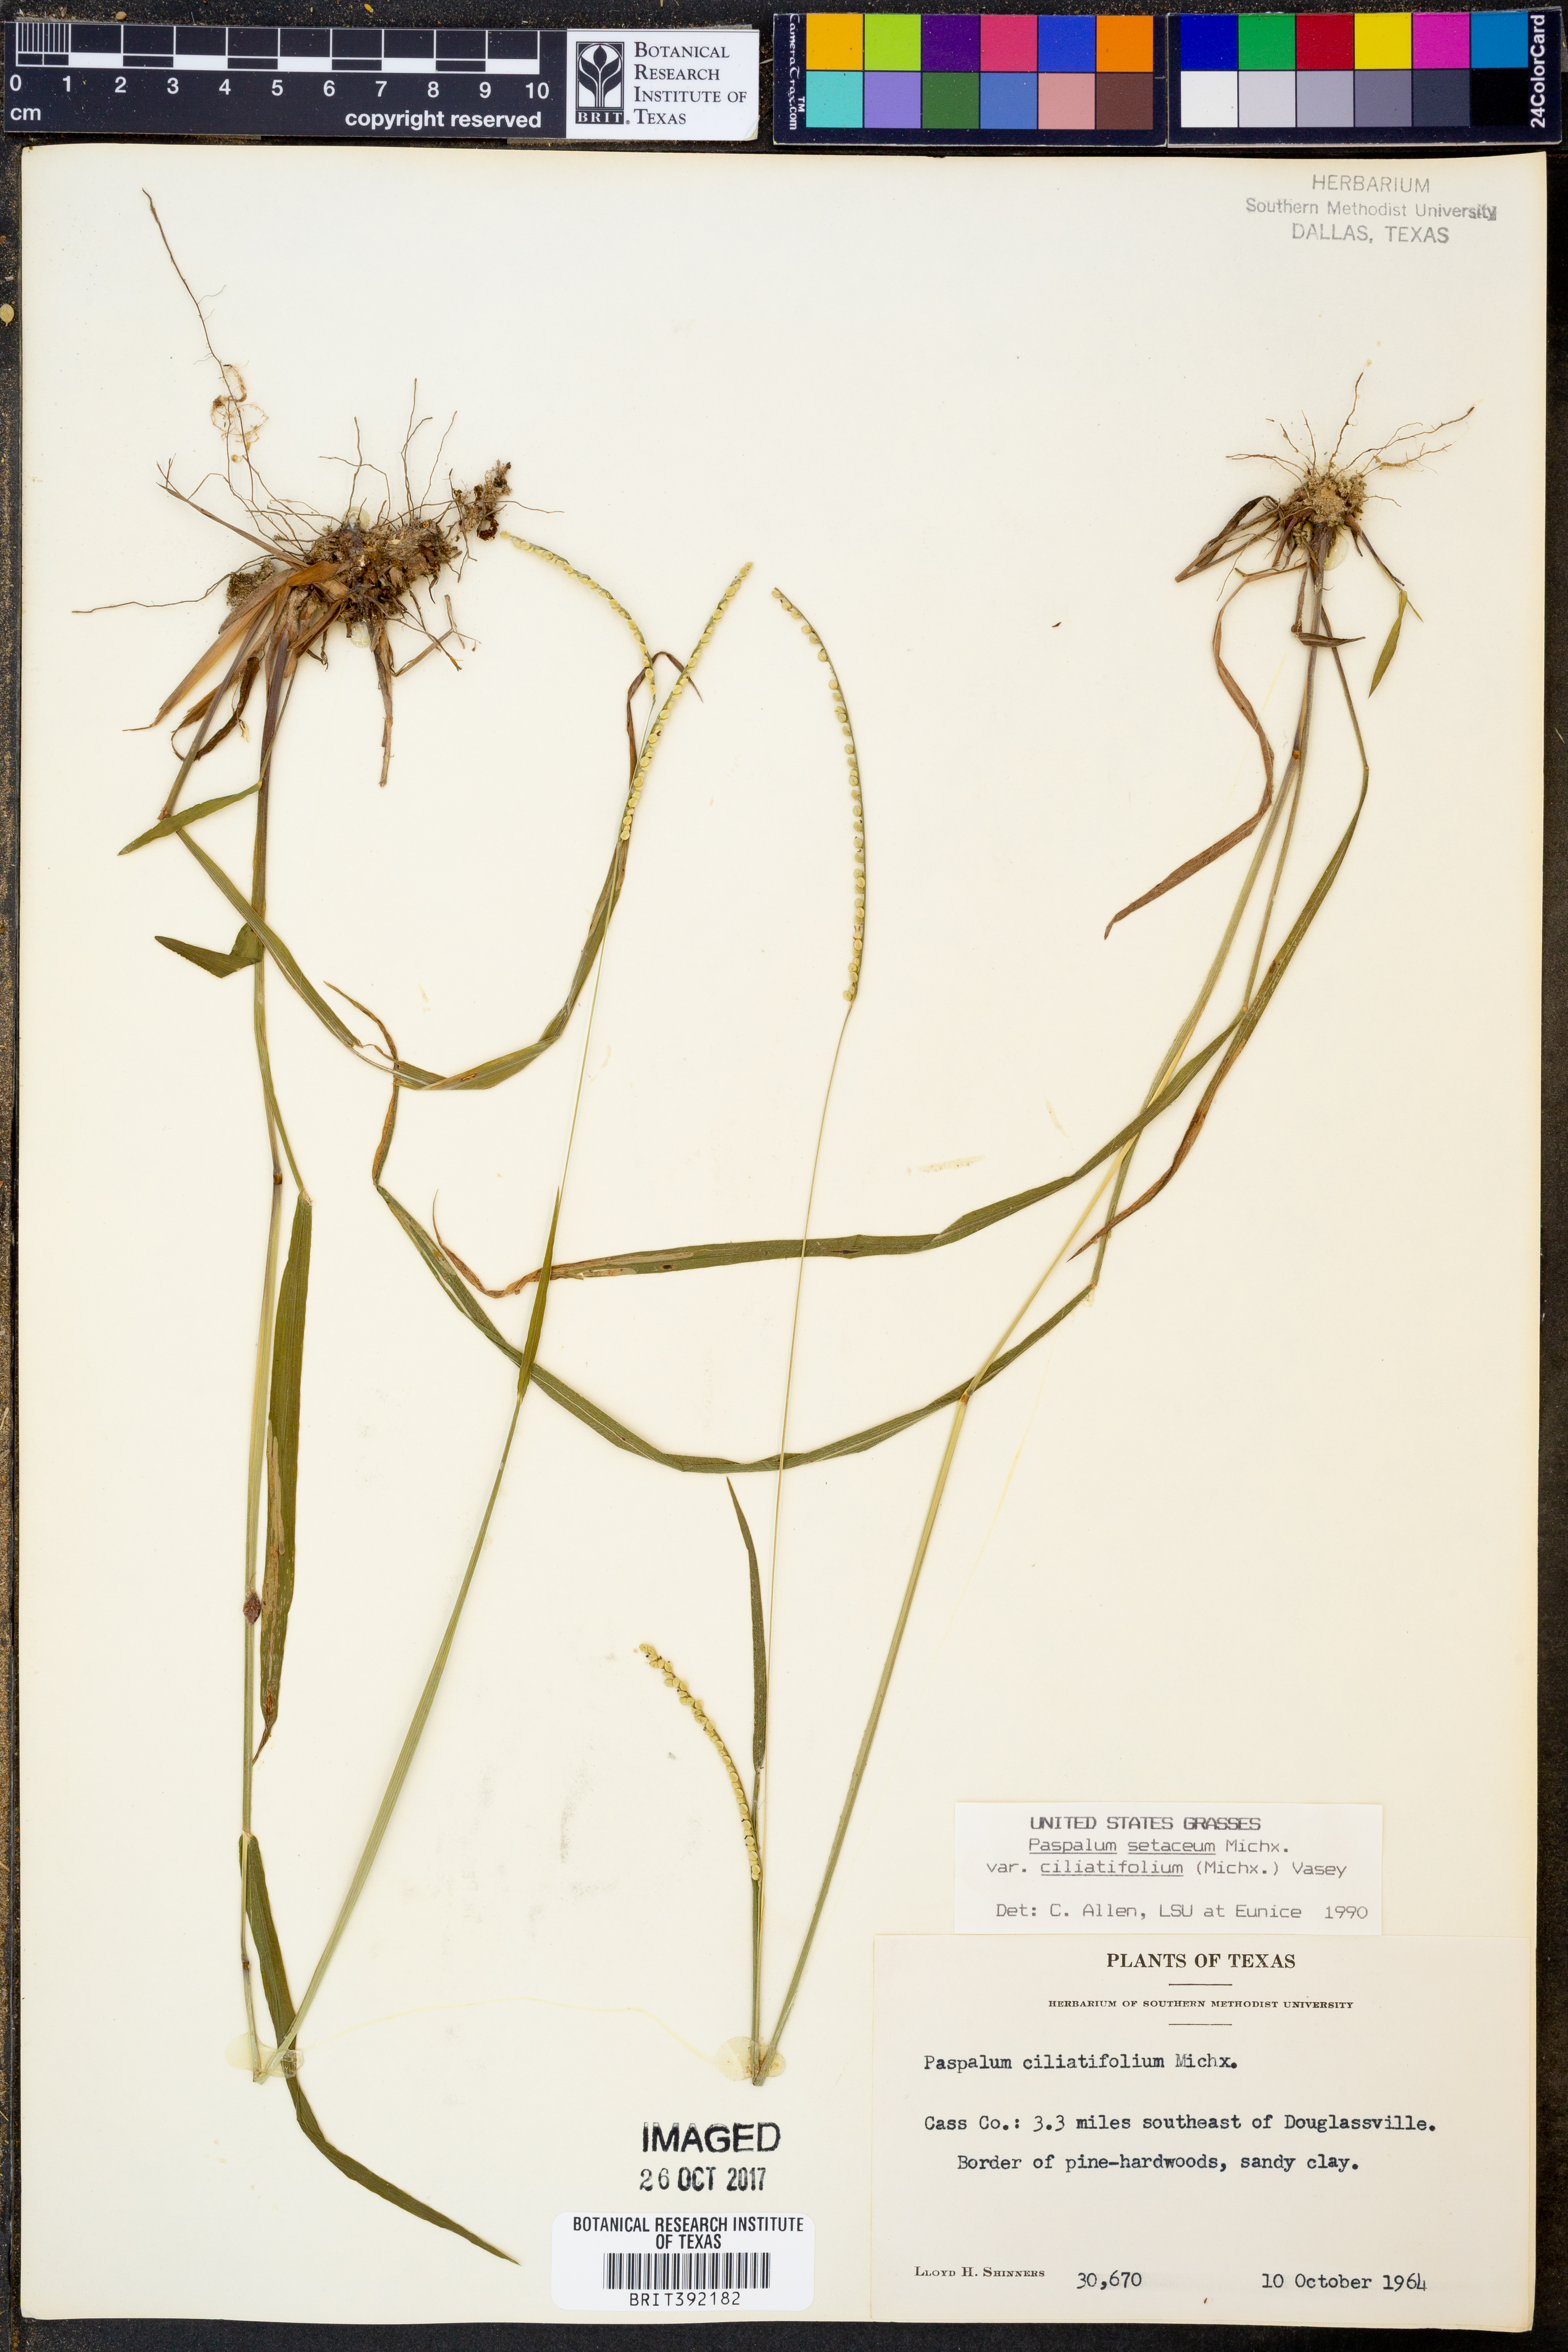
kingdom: Plantae
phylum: Tracheophyta
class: Liliopsida
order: Poales
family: Poaceae
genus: Paspalum
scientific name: Paspalum setaceum
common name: Slender paspalum
